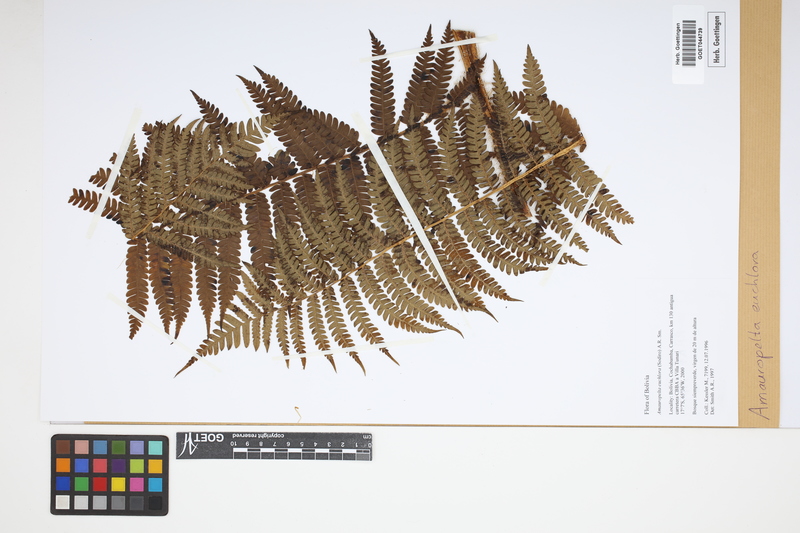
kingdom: Plantae
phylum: Tracheophyta
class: Polypodiopsida
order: Polypodiales
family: Thelypteridaceae
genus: Amauropelta
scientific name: Amauropelta euchlora
